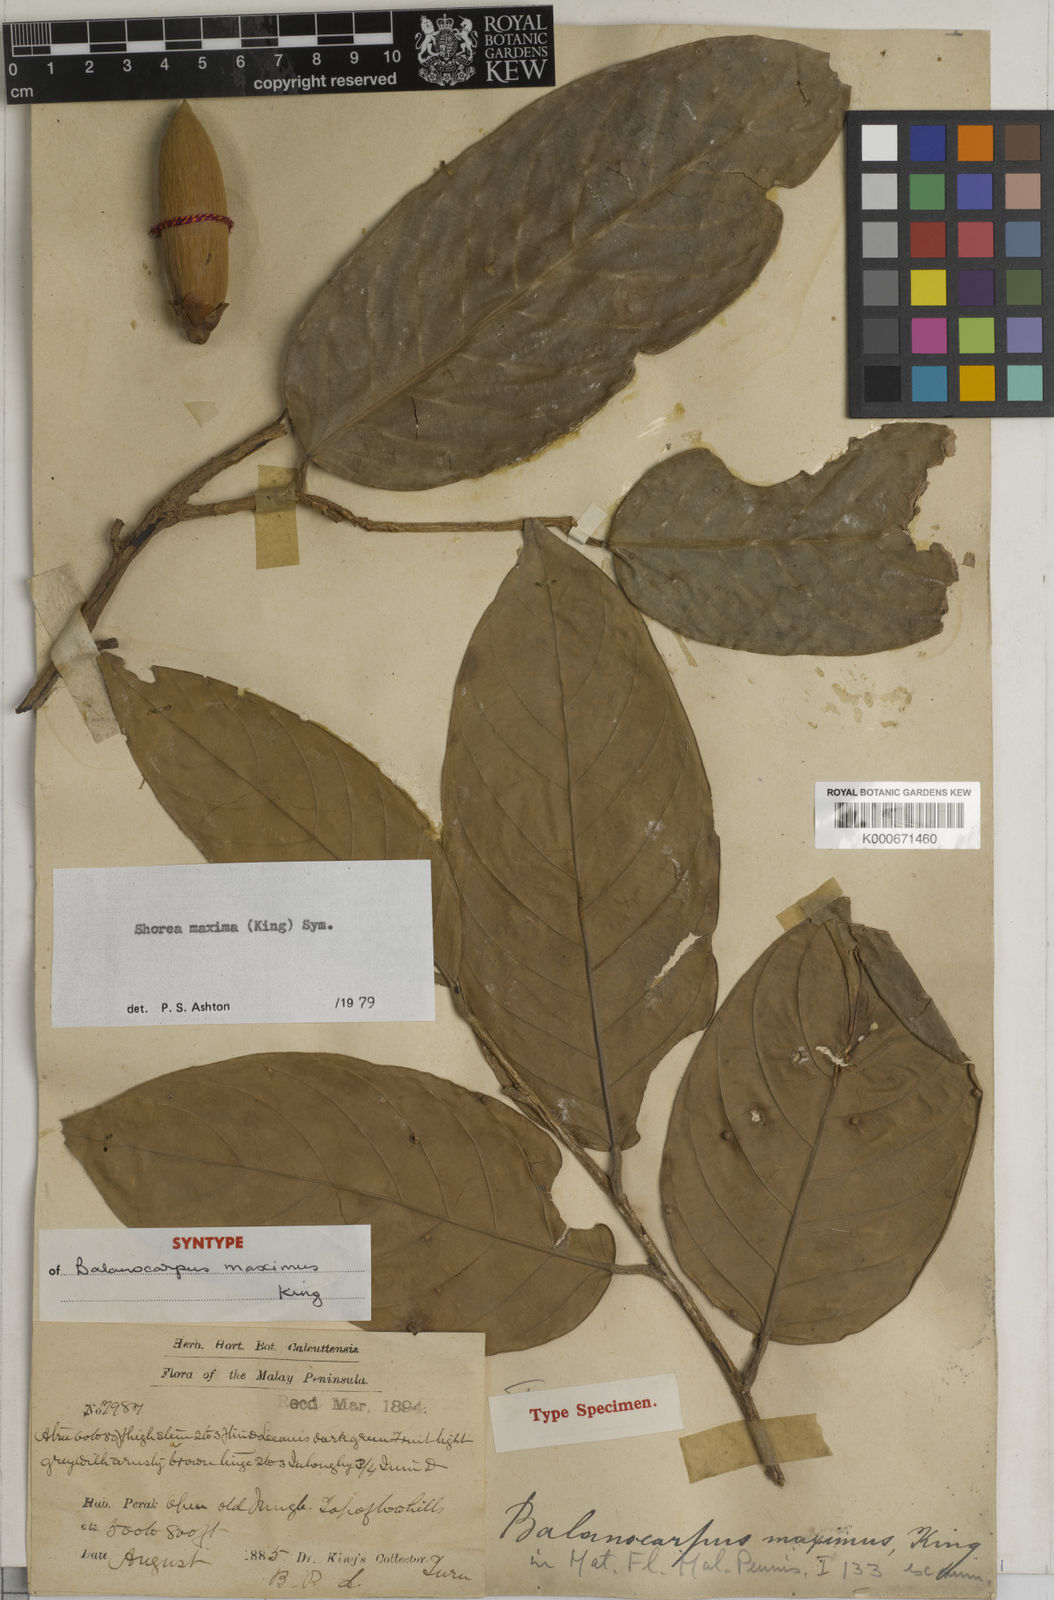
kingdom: Plantae
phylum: Tracheophyta
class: Magnoliopsida
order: Malvales
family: Dipterocarpaceae
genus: Shorea
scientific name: Shorea maxima
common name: Yellow meranti
